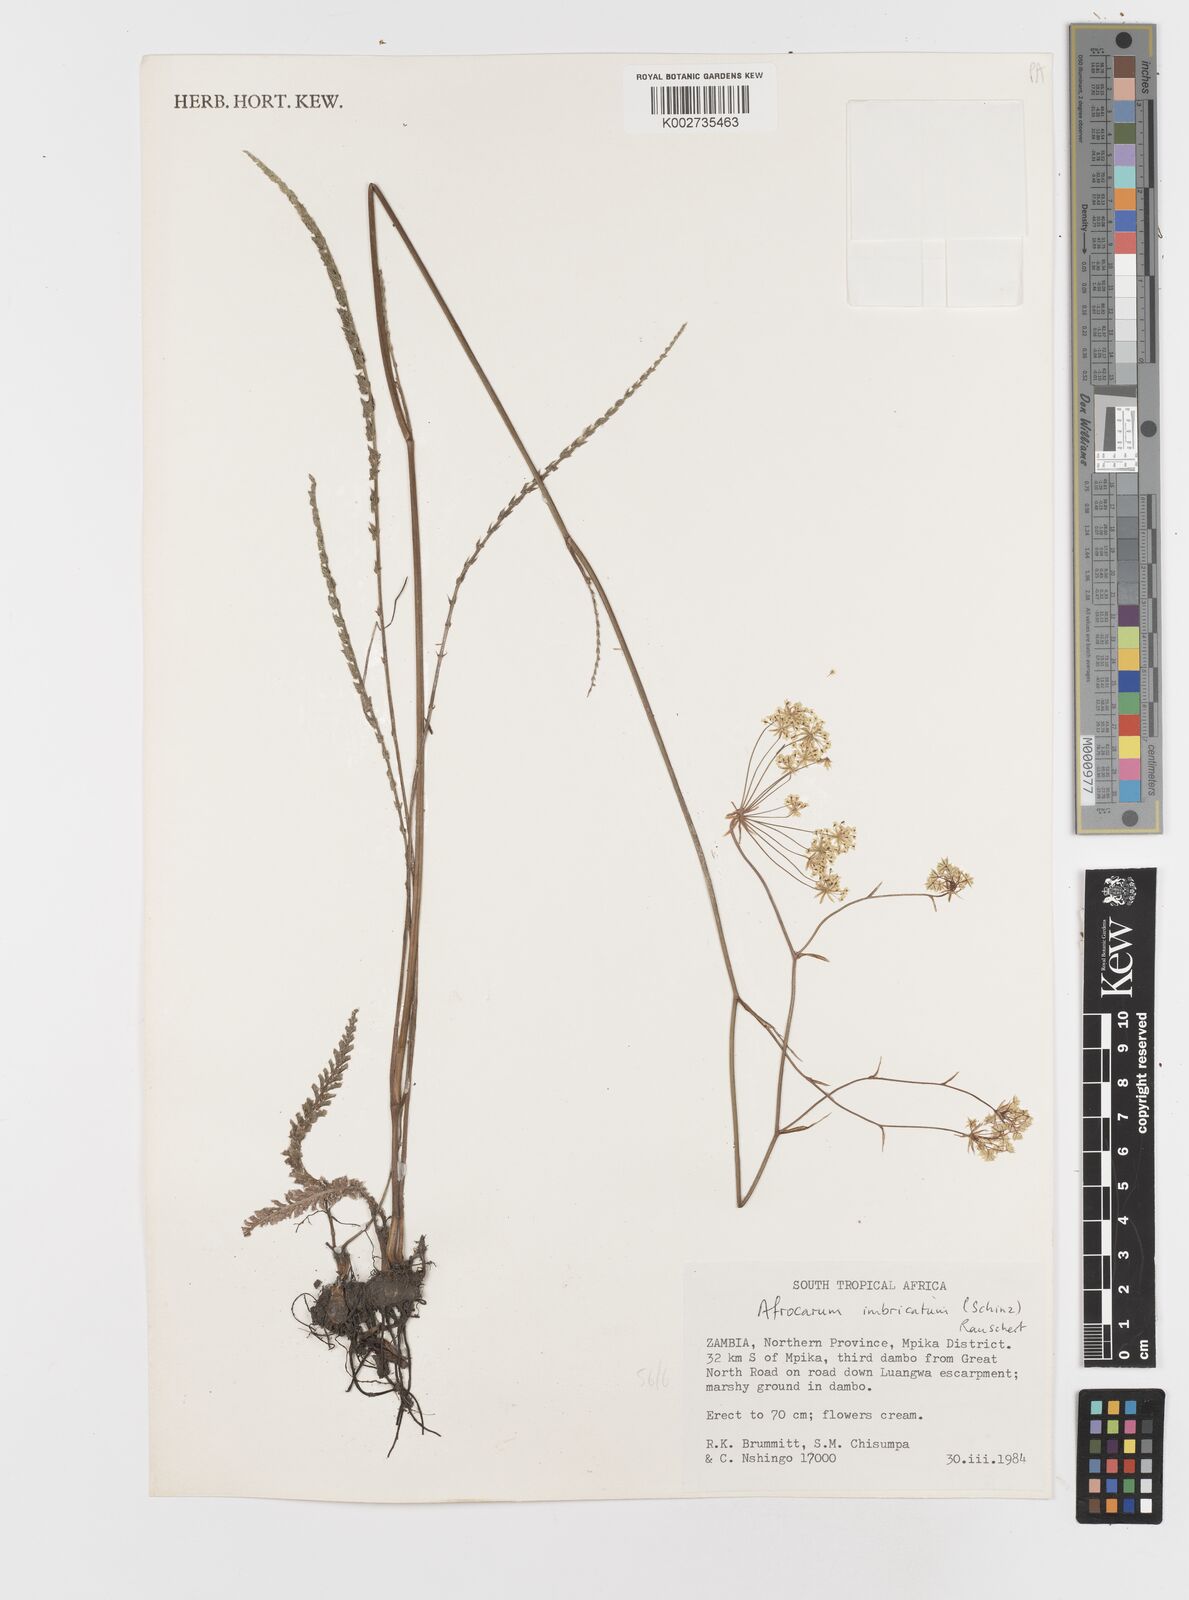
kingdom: Plantae
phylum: Tracheophyta
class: Magnoliopsida
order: Apiales
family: Apiaceae
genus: Berula
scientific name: Berula imbricata
